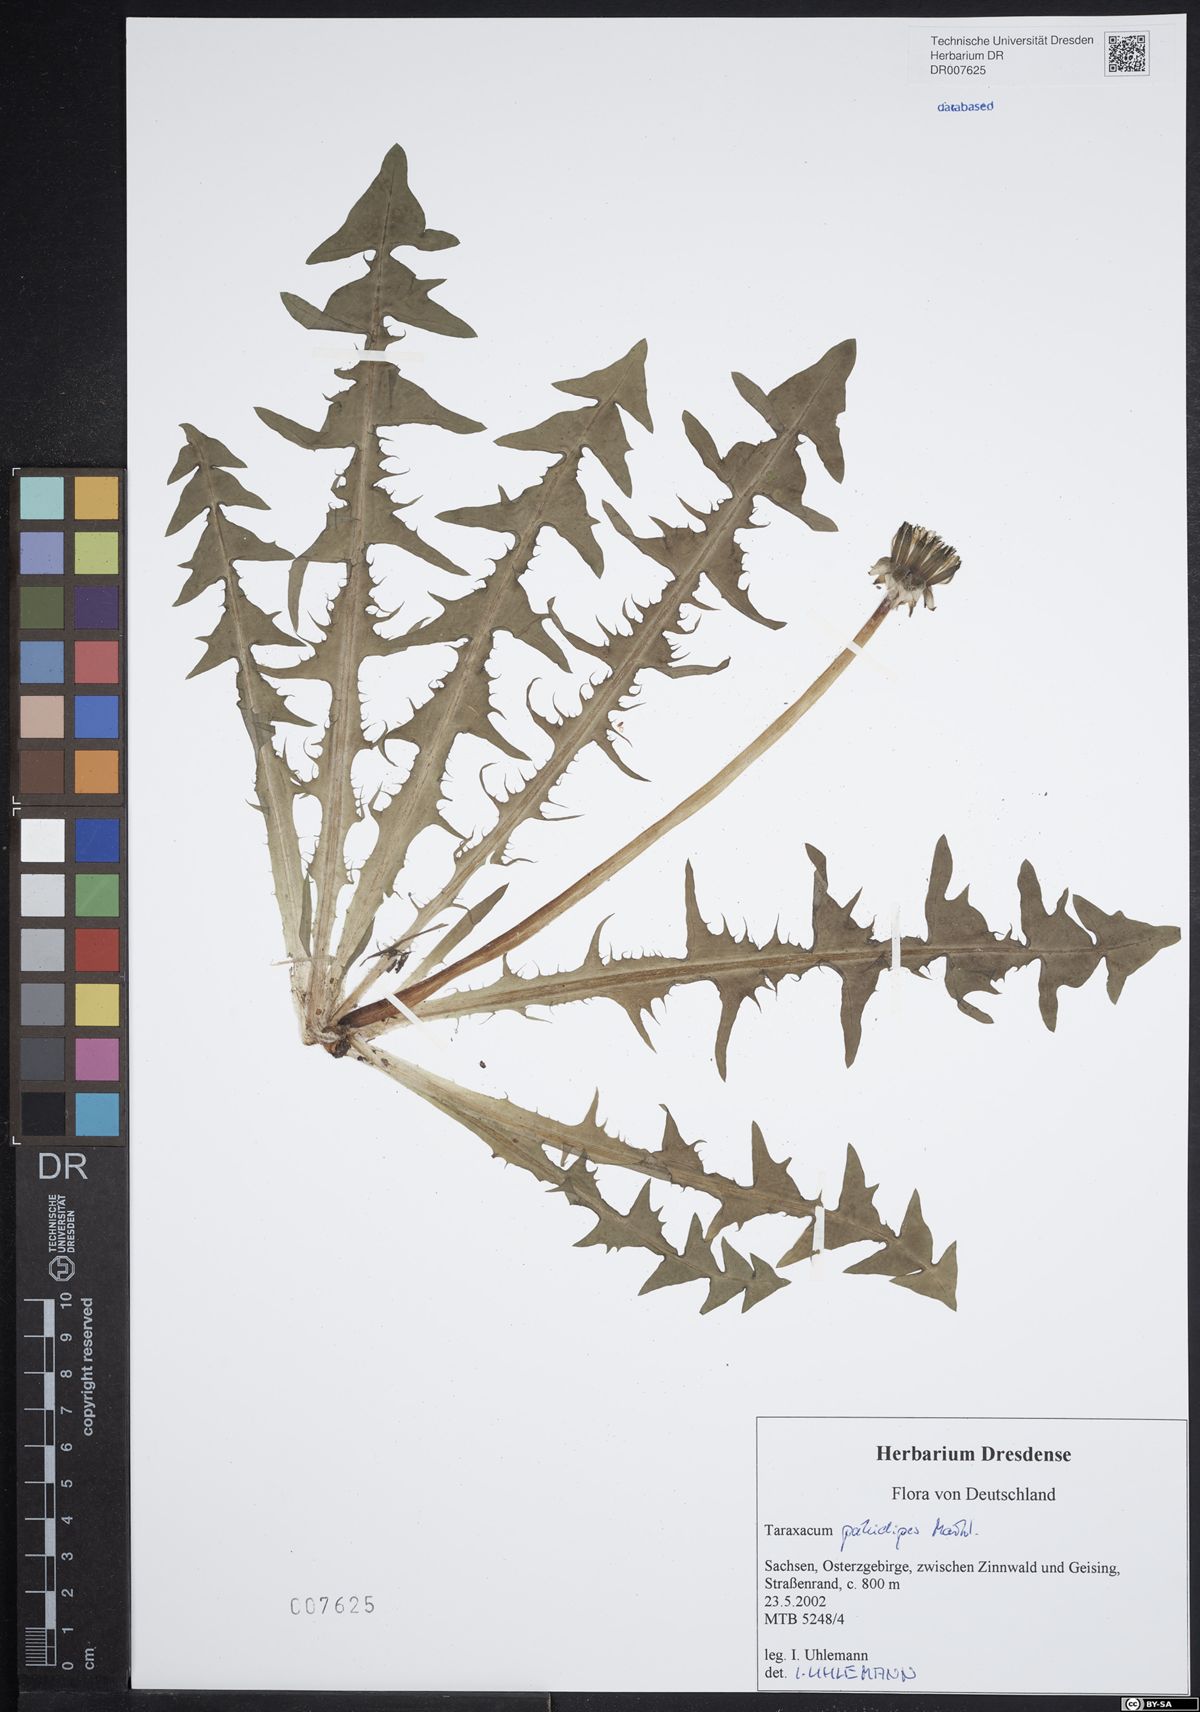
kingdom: Plantae
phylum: Tracheophyta
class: Magnoliopsida
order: Asterales
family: Asteraceae
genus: Taraxacum
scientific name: Taraxacum pallidipes
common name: Grey-bracted dandelion
